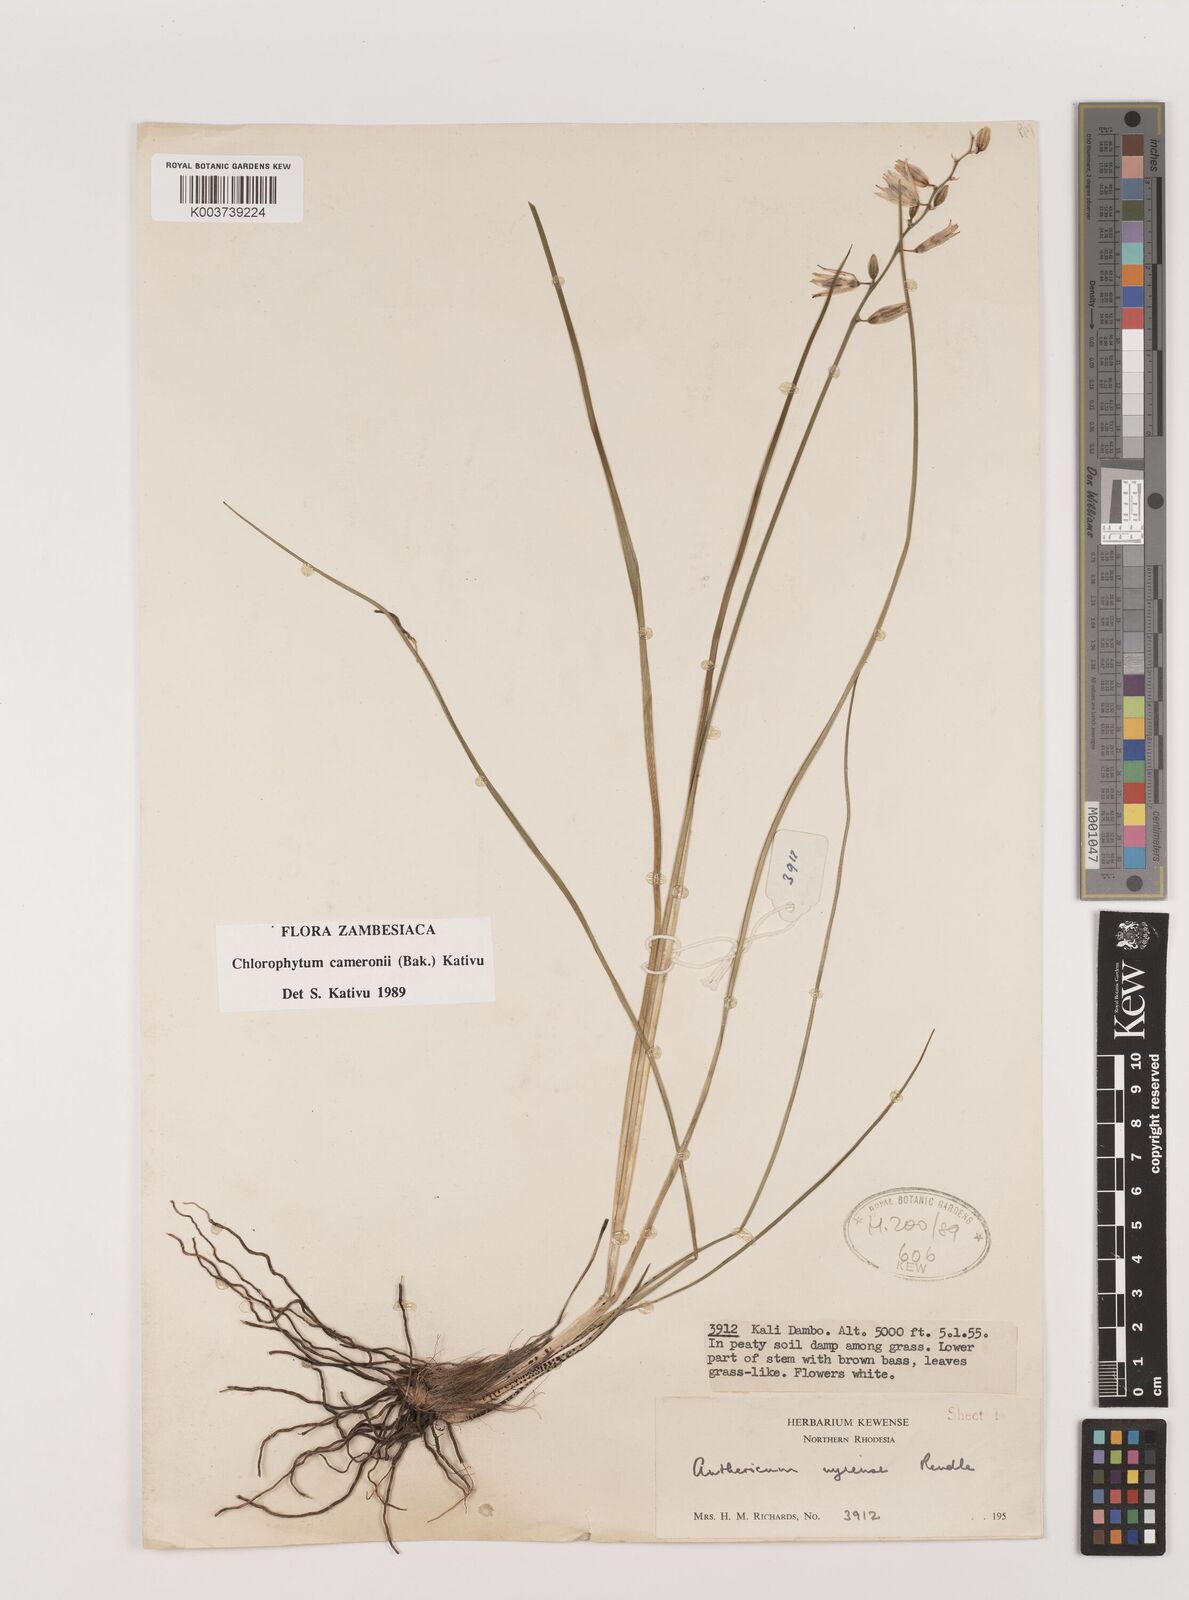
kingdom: Plantae
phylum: Tracheophyta
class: Liliopsida
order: Asparagales
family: Asparagaceae
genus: Chlorophytum
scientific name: Chlorophytum cameronii
